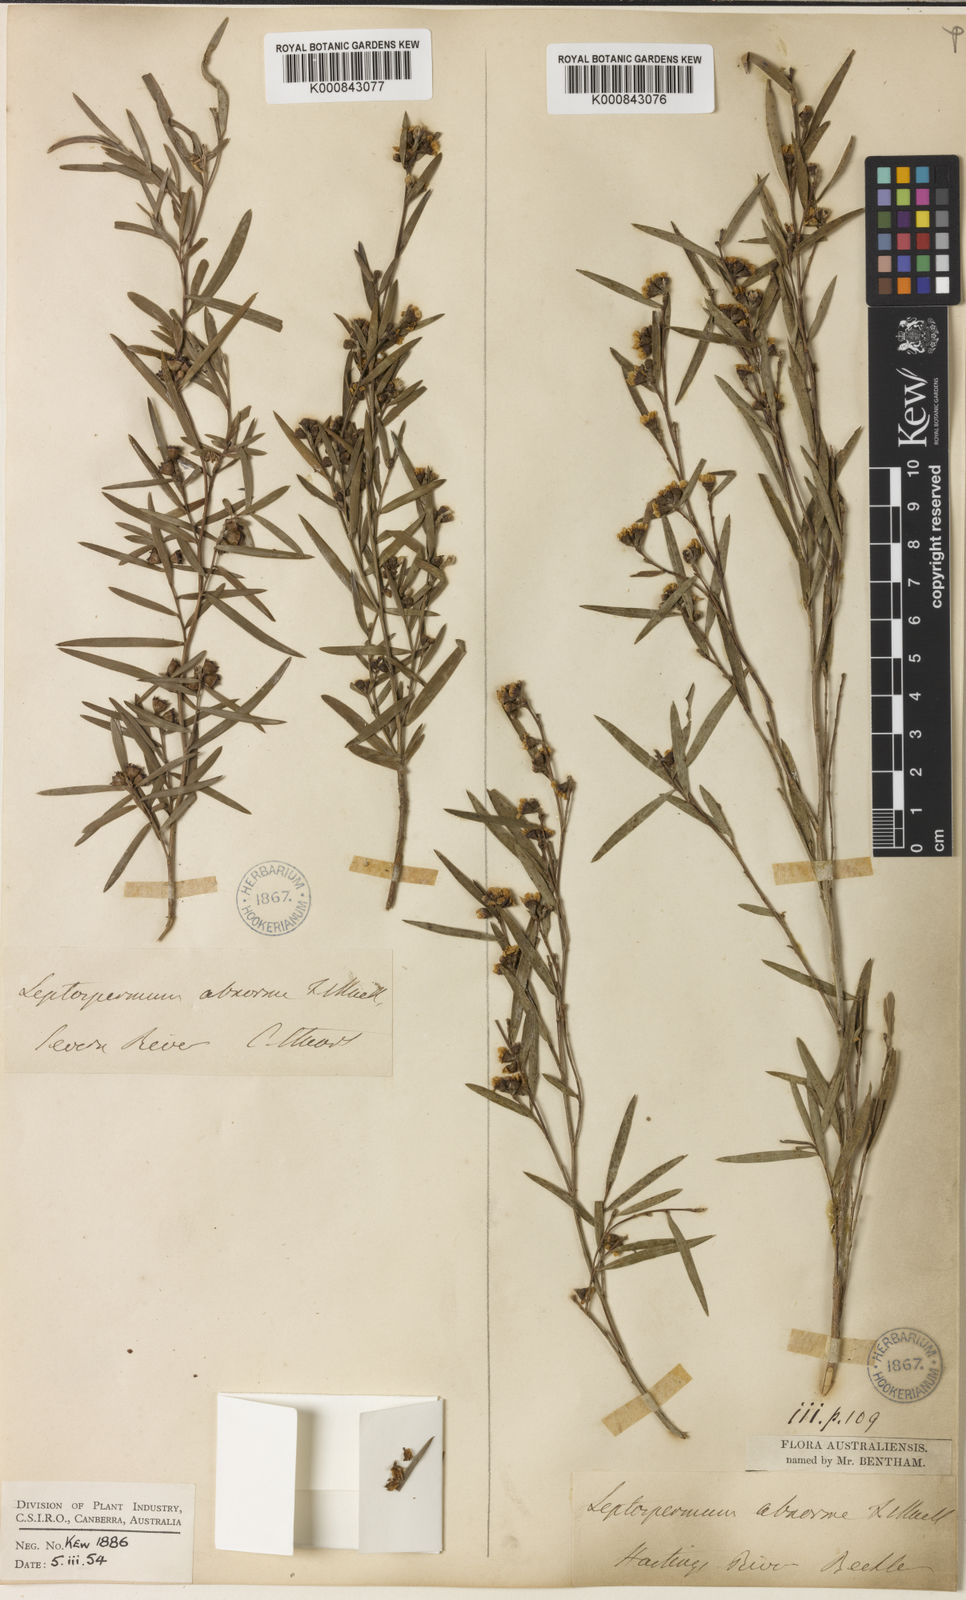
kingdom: Plantae
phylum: Tracheophyta
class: Magnoliopsida
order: Myrtales
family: Myrtaceae
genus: Leptospermum
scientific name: Leptospermum brachyandrum
